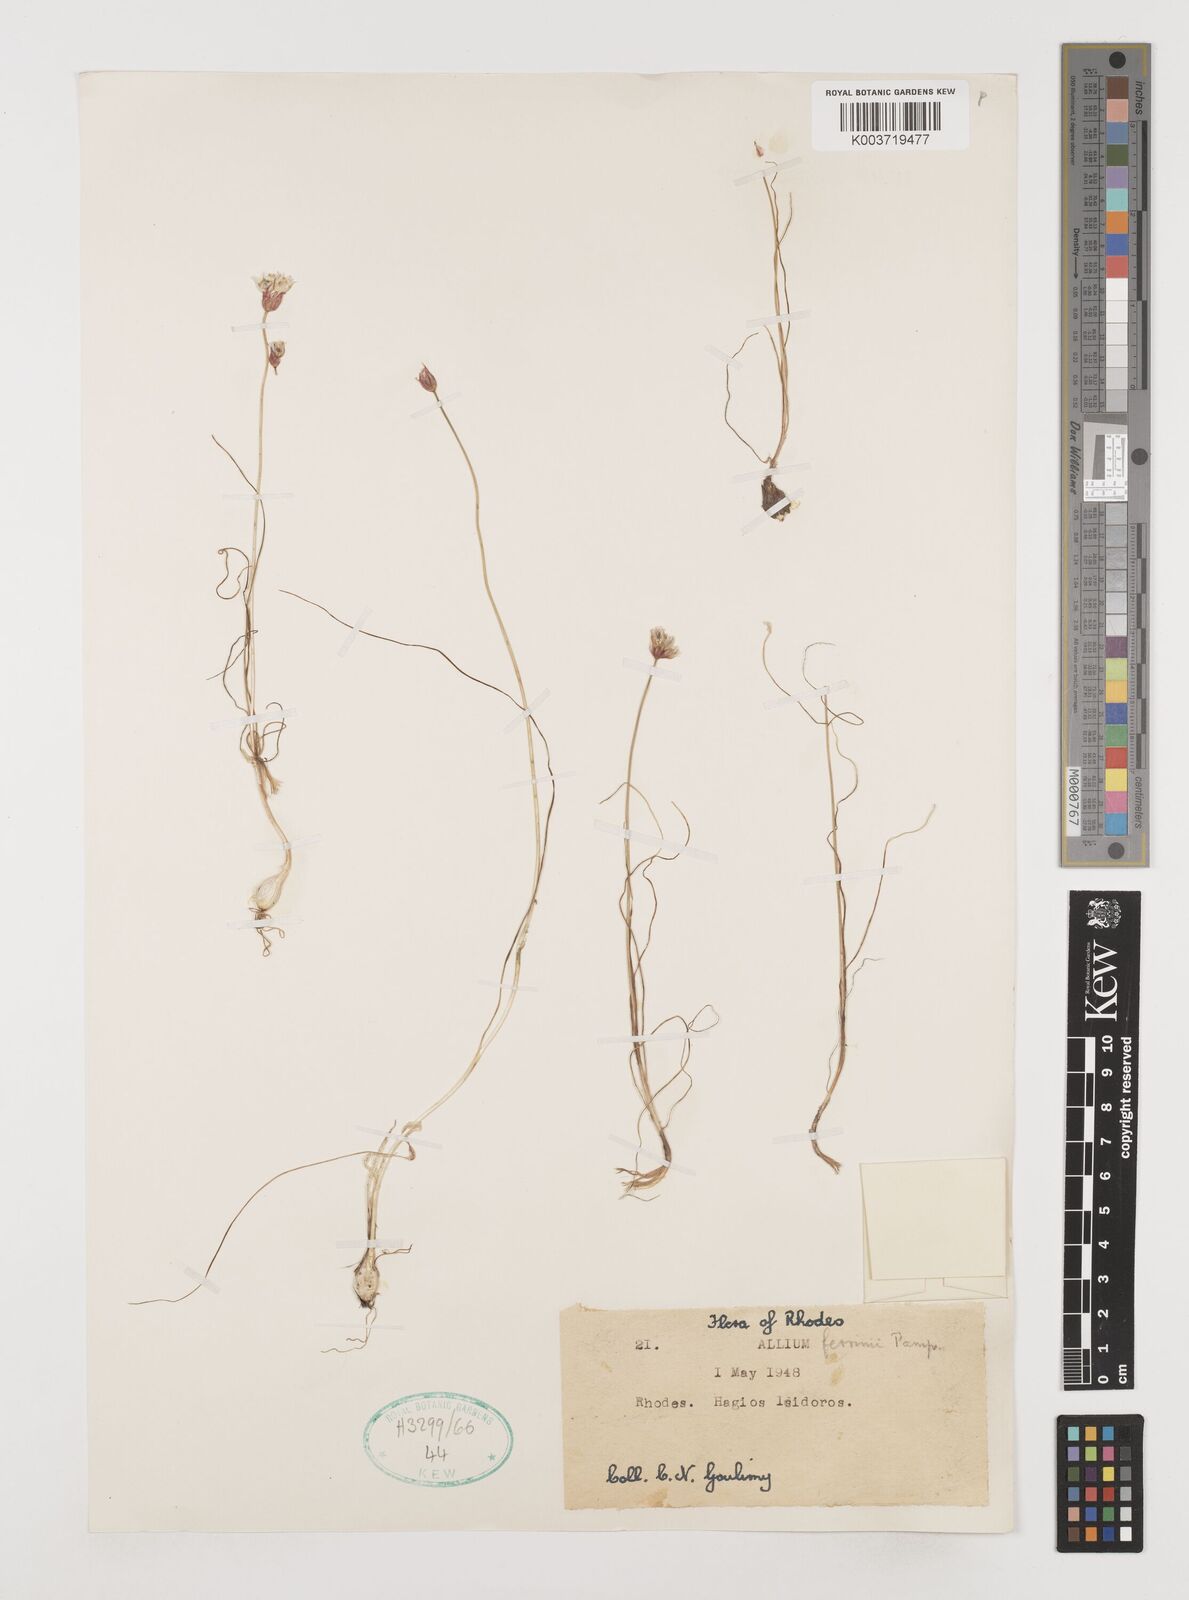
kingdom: Plantae
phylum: Tracheophyta
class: Liliopsida
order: Asparagales
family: Amaryllidaceae
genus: Allium
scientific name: Allium junceum
